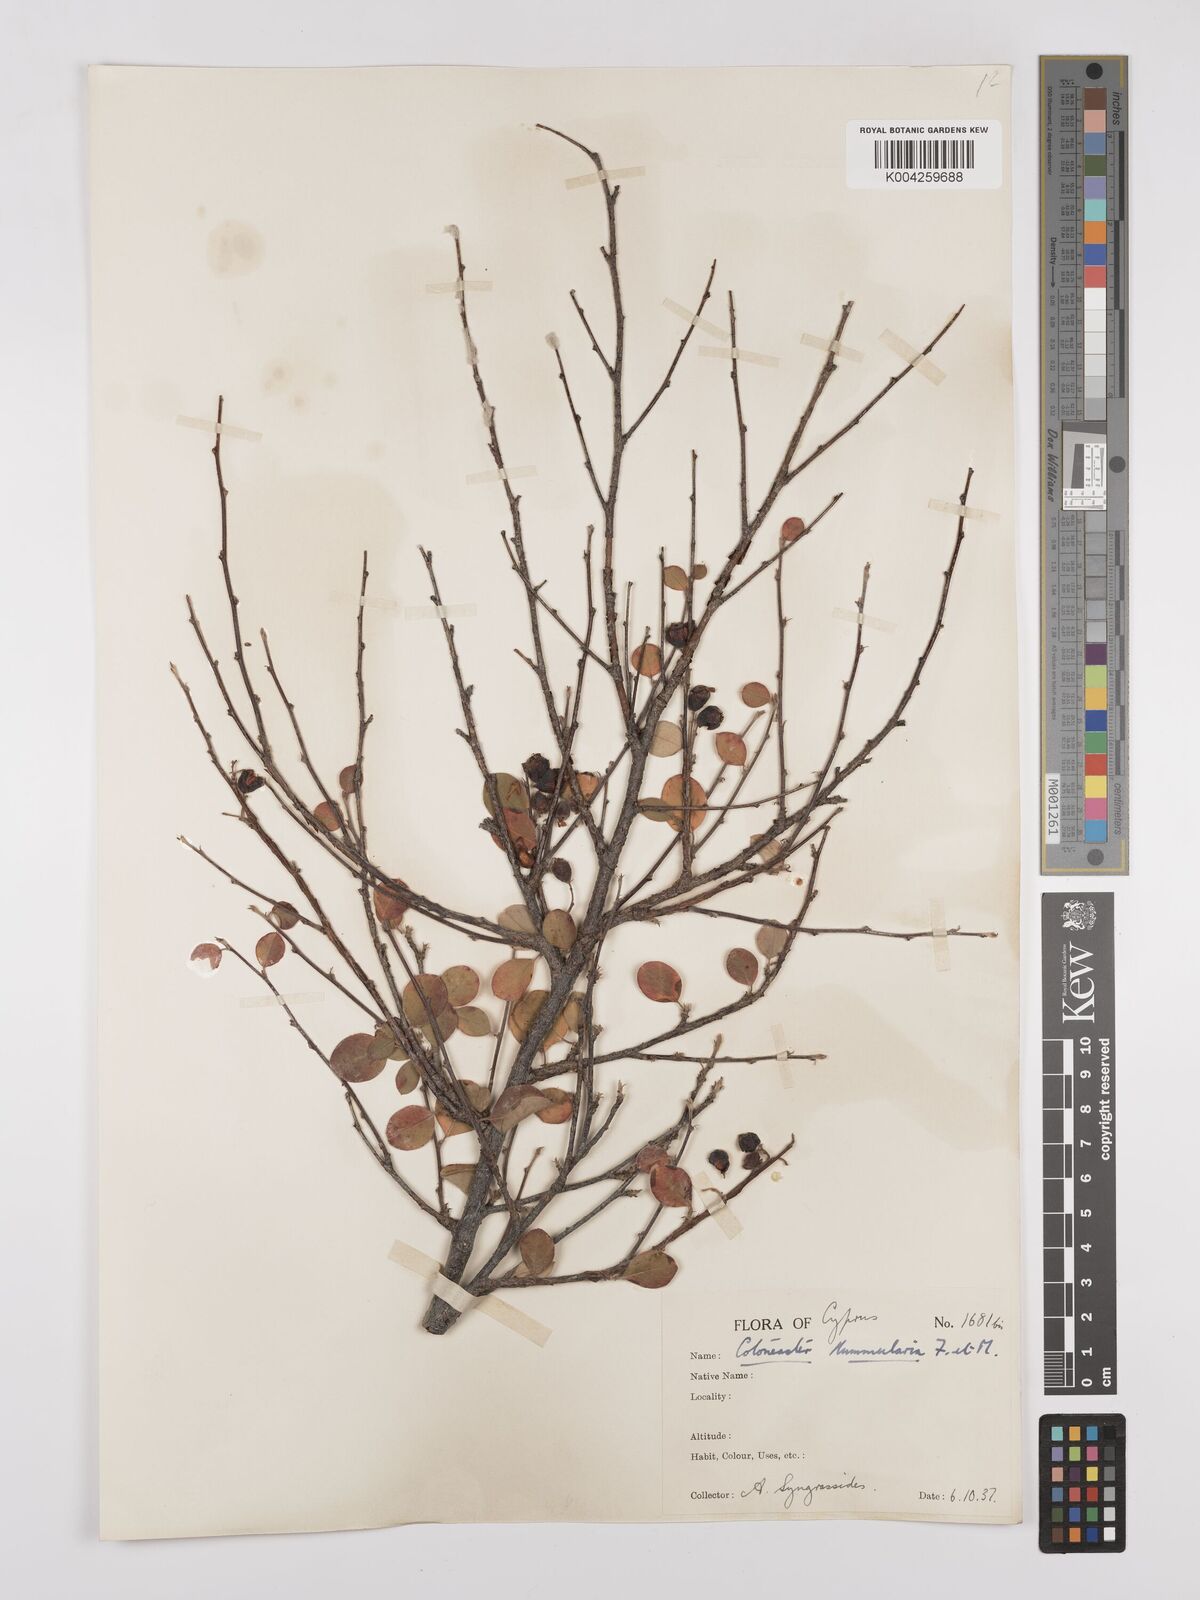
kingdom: Plantae
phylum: Tracheophyta
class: Magnoliopsida
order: Rosales
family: Rosaceae
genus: Cotoneaster
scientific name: Cotoneaster nummularius
